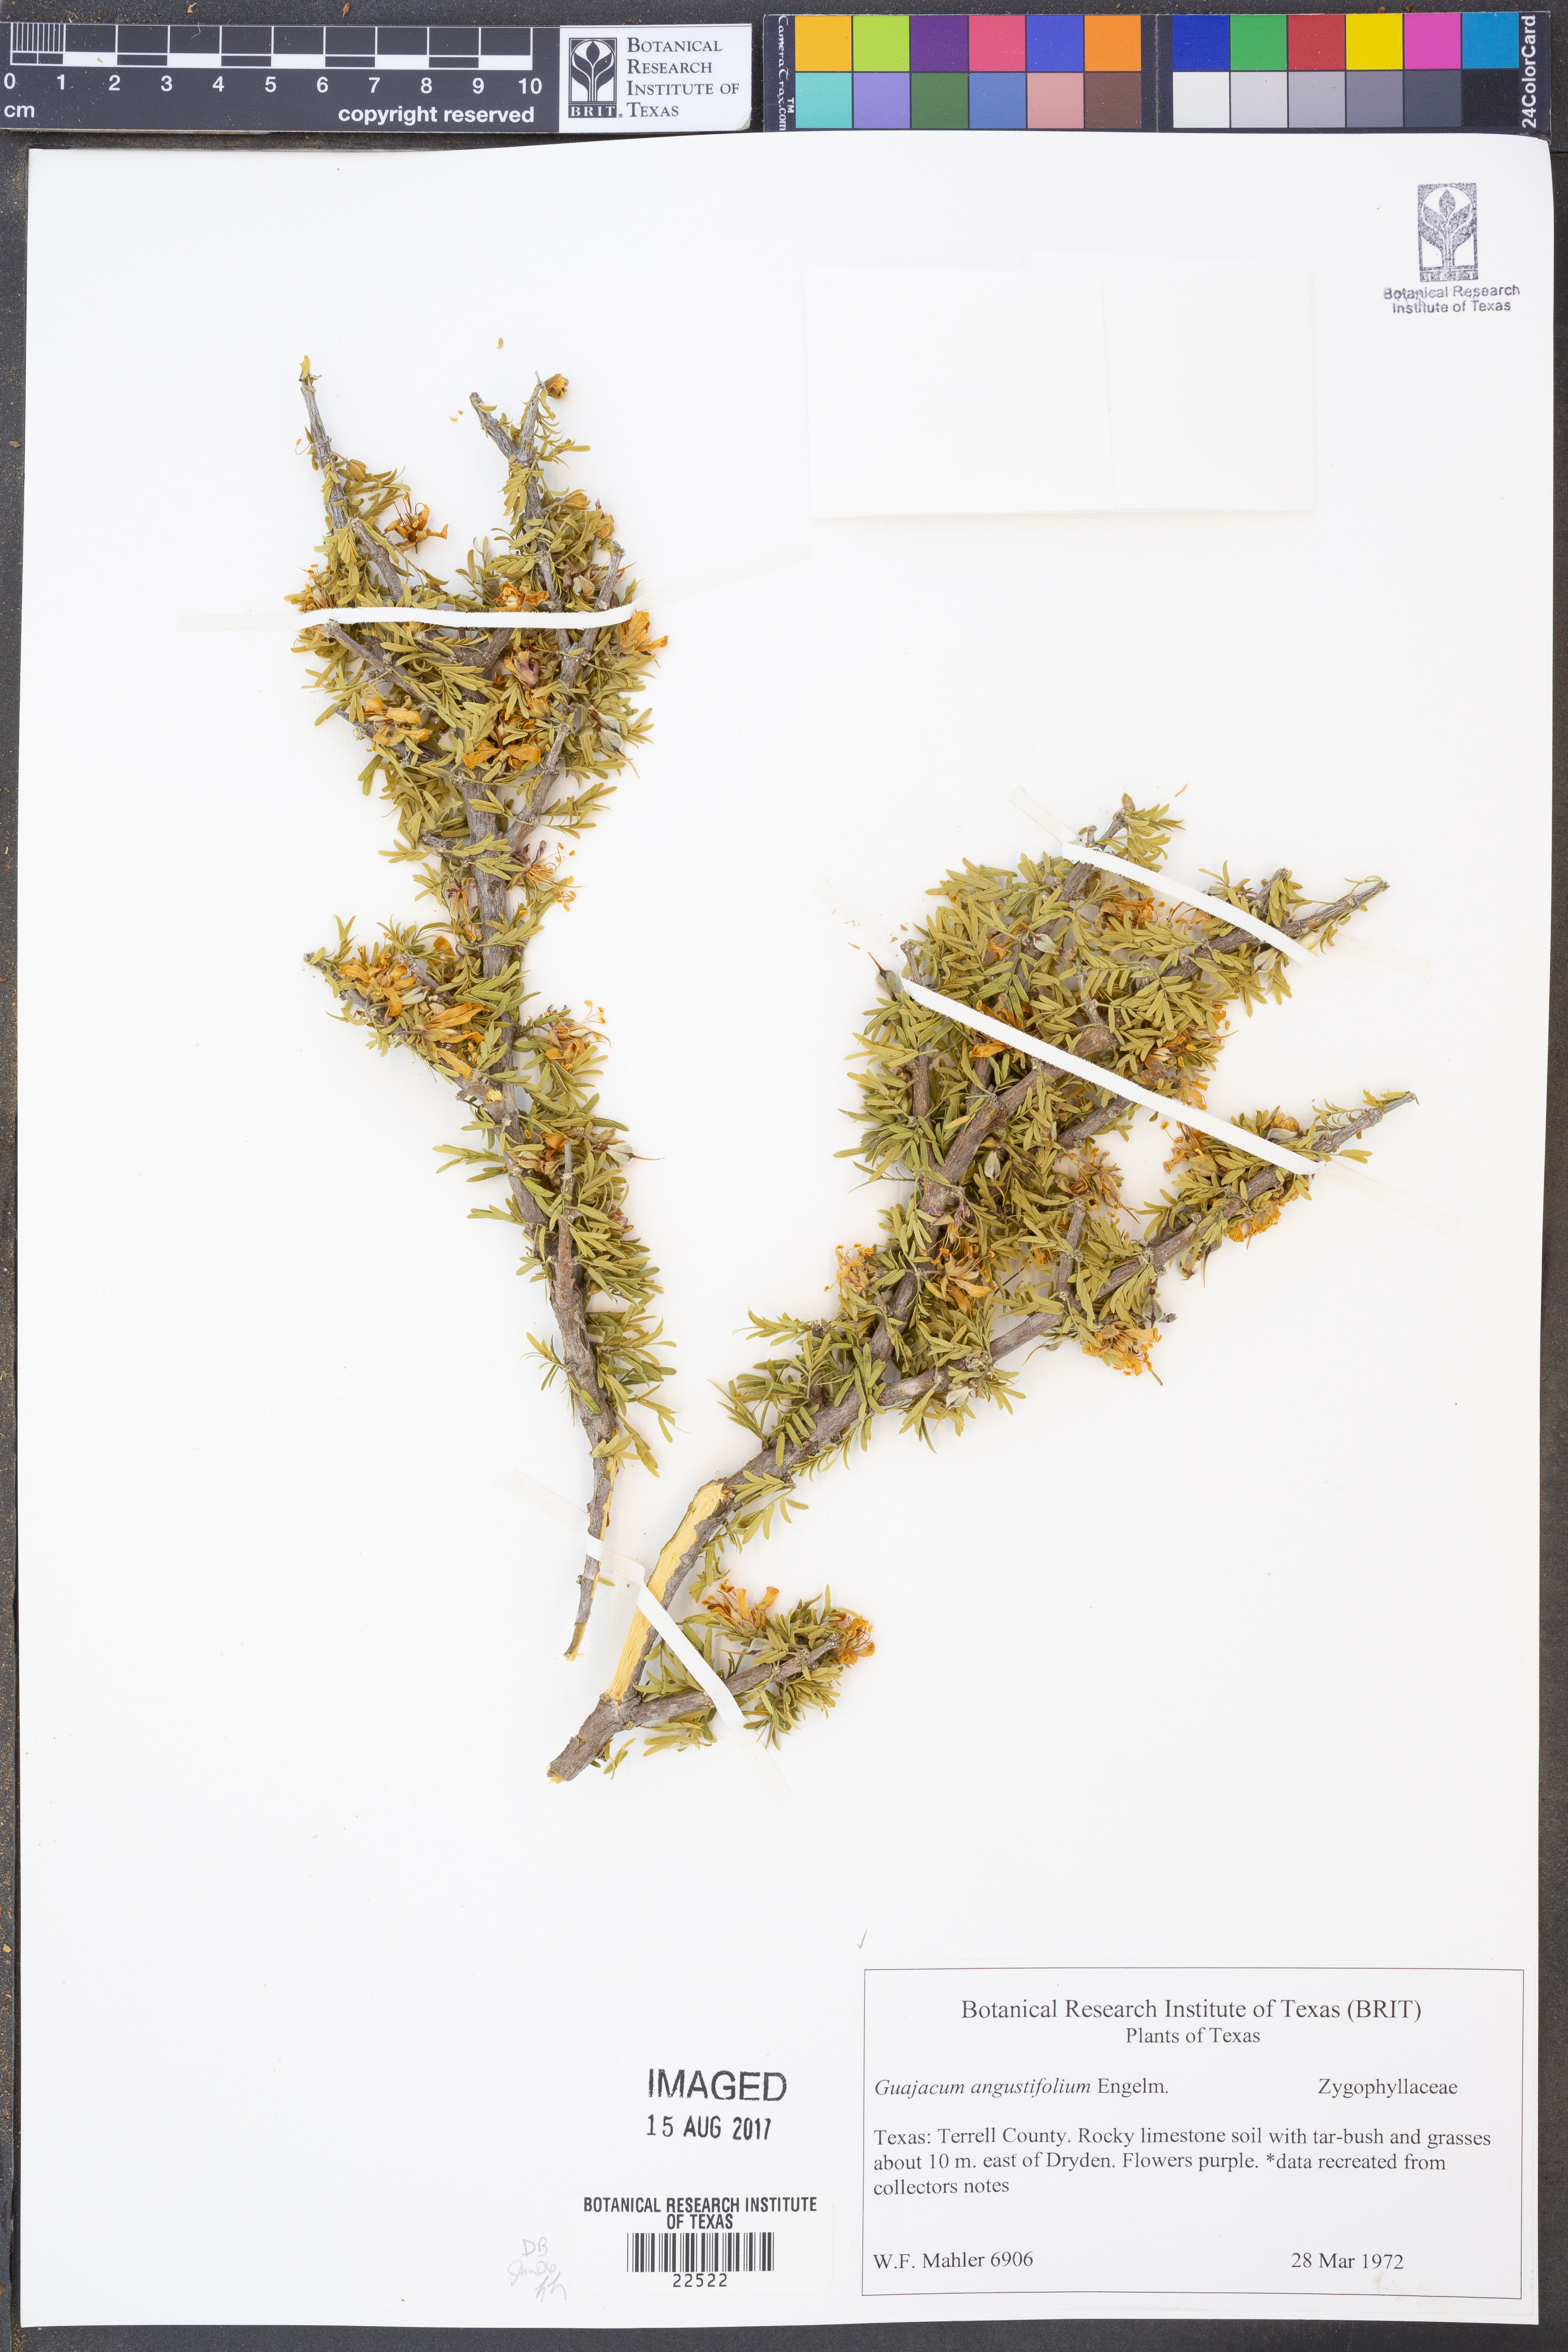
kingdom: Plantae
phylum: Tracheophyta
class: Magnoliopsida
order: Zygophyllales
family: Zygophyllaceae
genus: Porlieria
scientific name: Porlieria angustifolia
